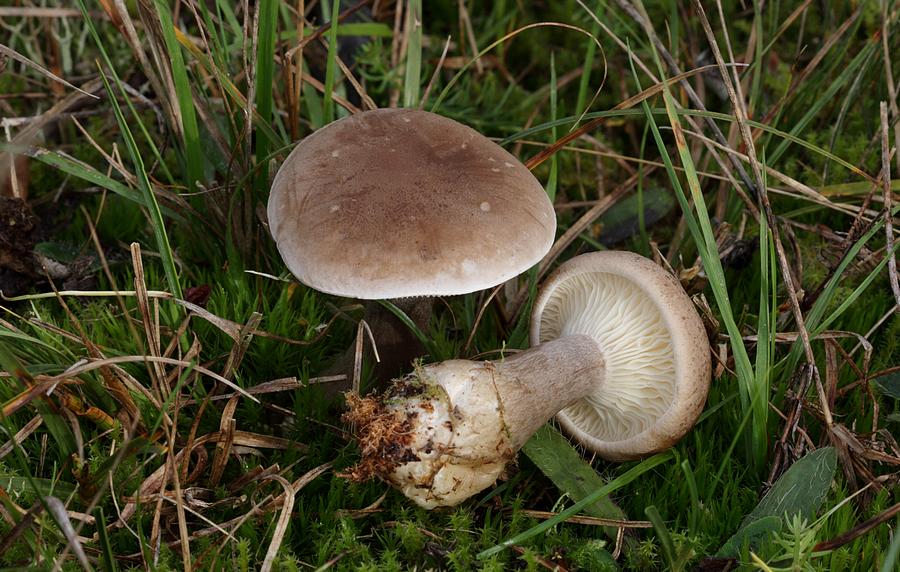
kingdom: Fungi
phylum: Basidiomycota
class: Agaricomycetes
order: Agaricales
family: Hygrophoraceae
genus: Ampulloclitocybe
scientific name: Ampulloclitocybe clavipes
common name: køllefod
